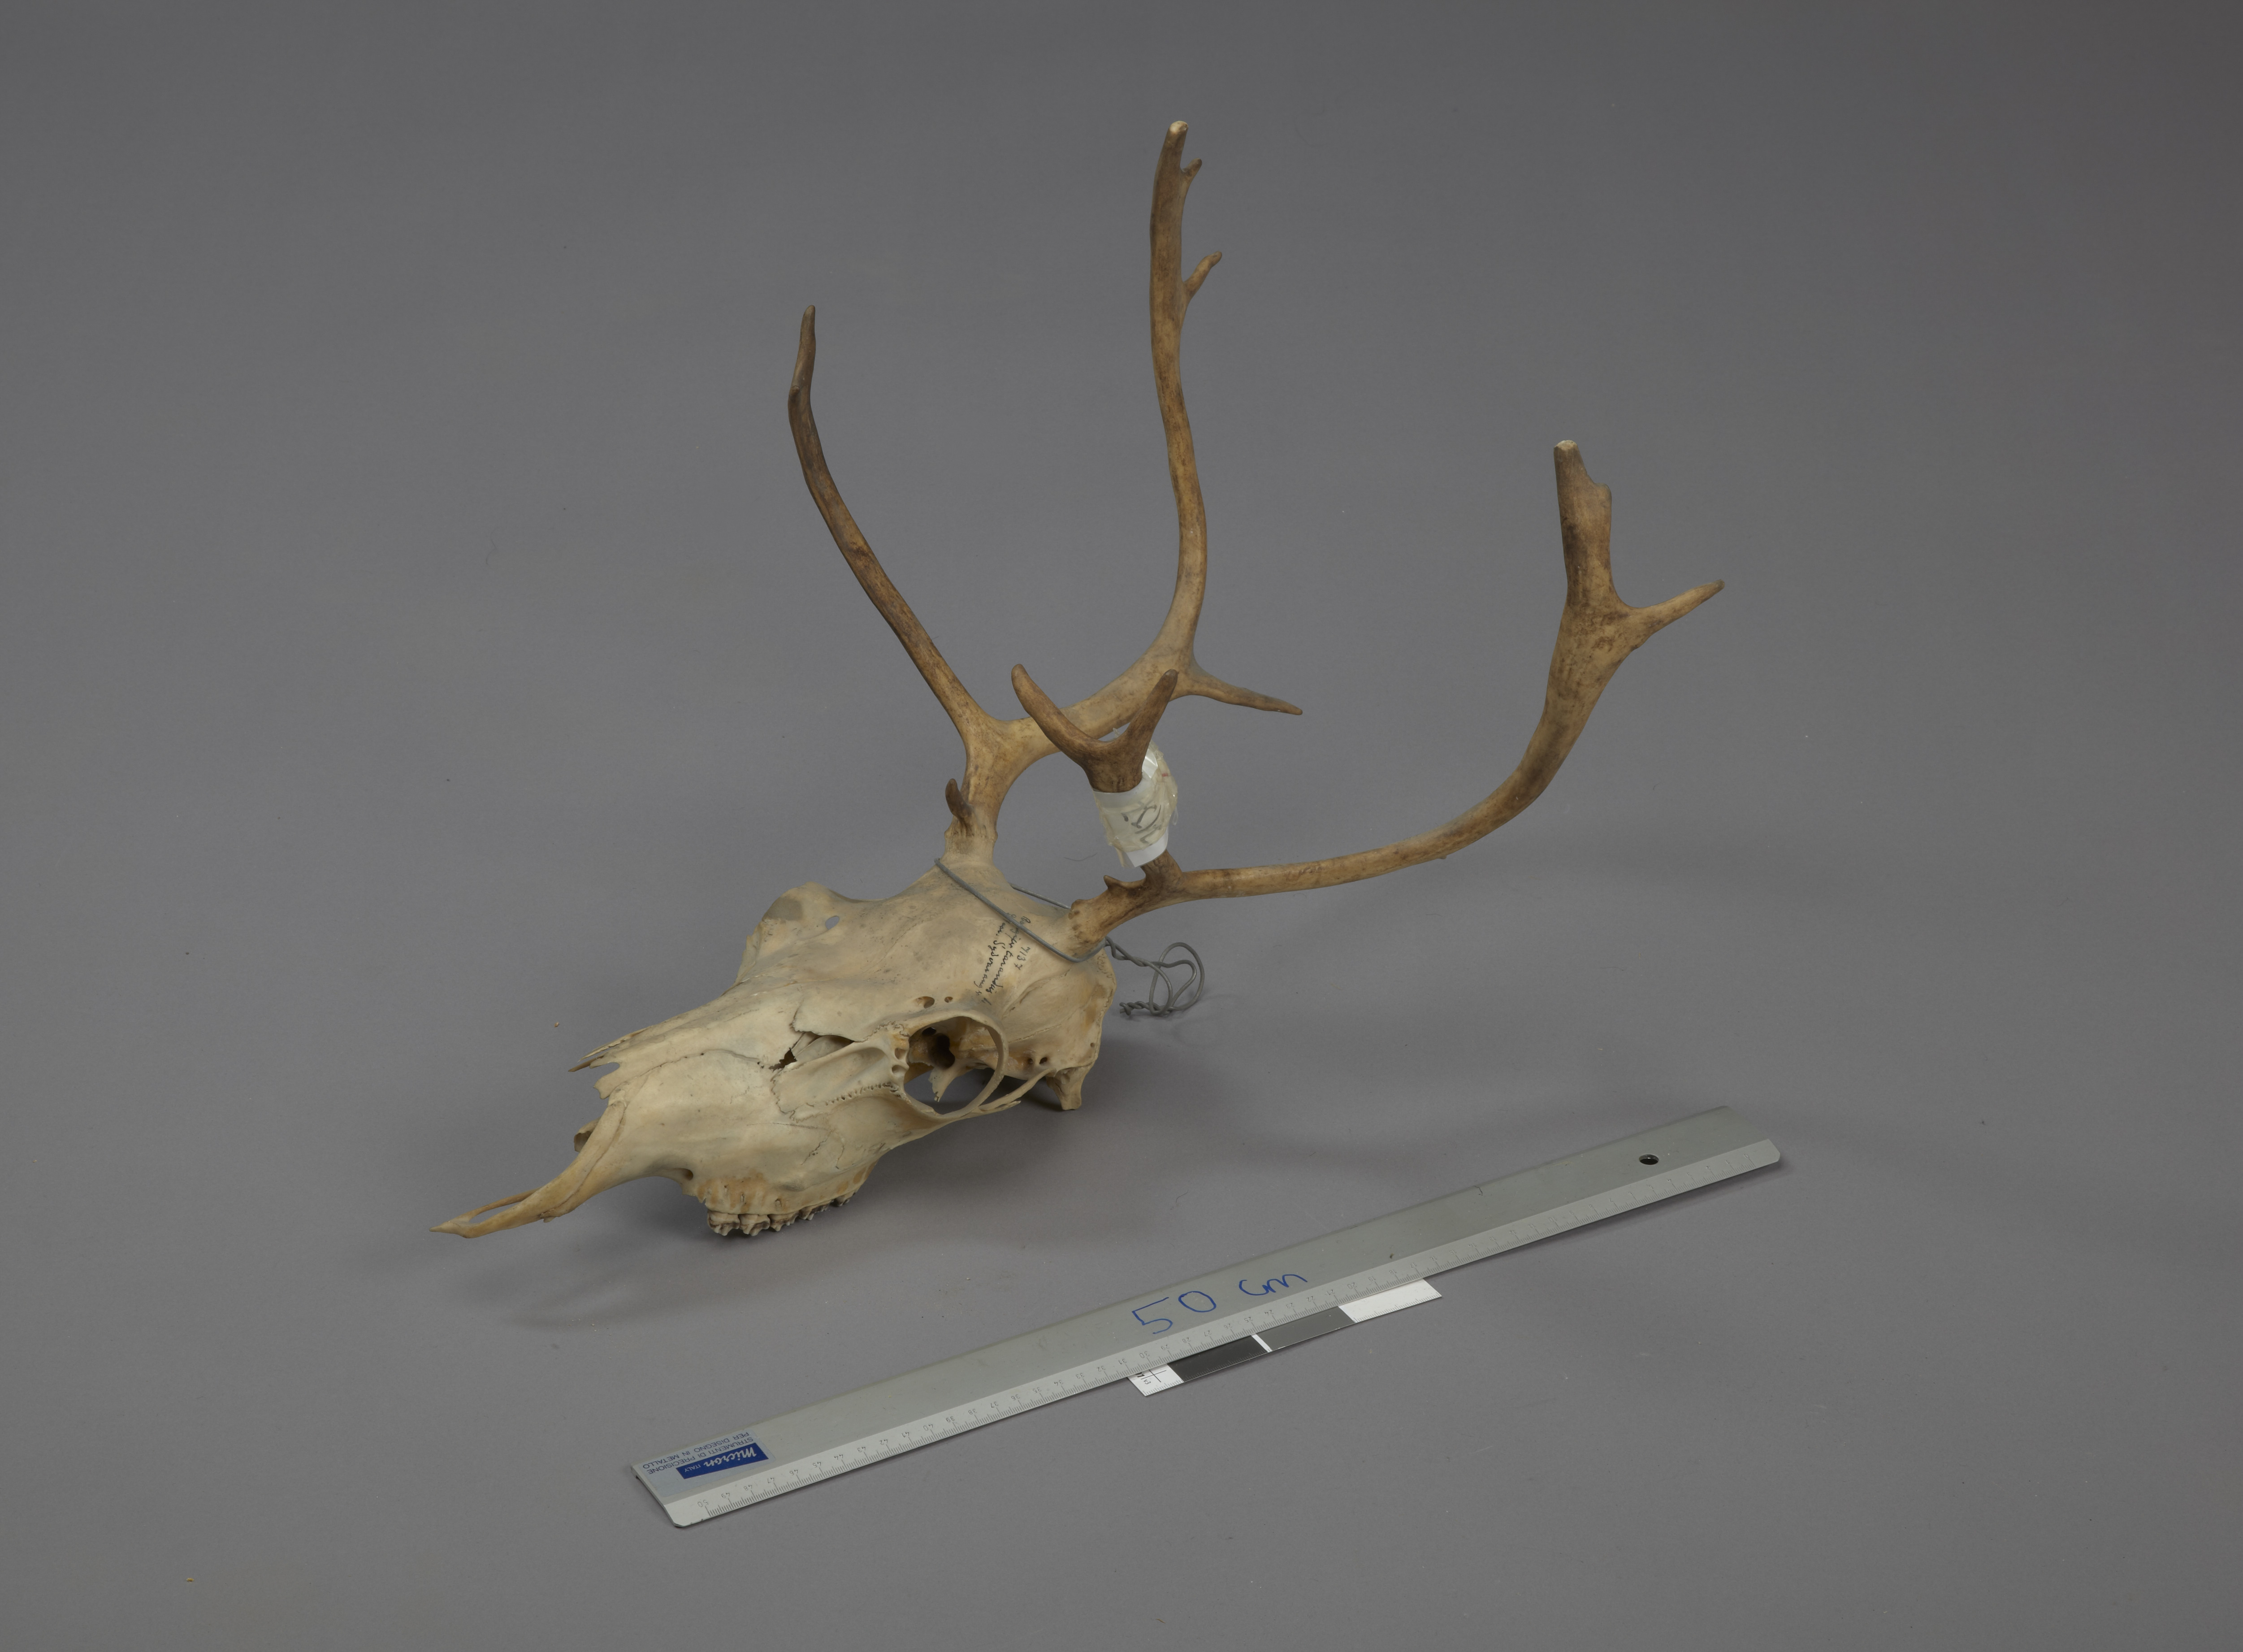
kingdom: Animalia
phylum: Chordata
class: Mammalia
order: Artiodactyla
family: Cervidae
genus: Rangifer
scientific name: Rangifer tarandus
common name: Reindeer
